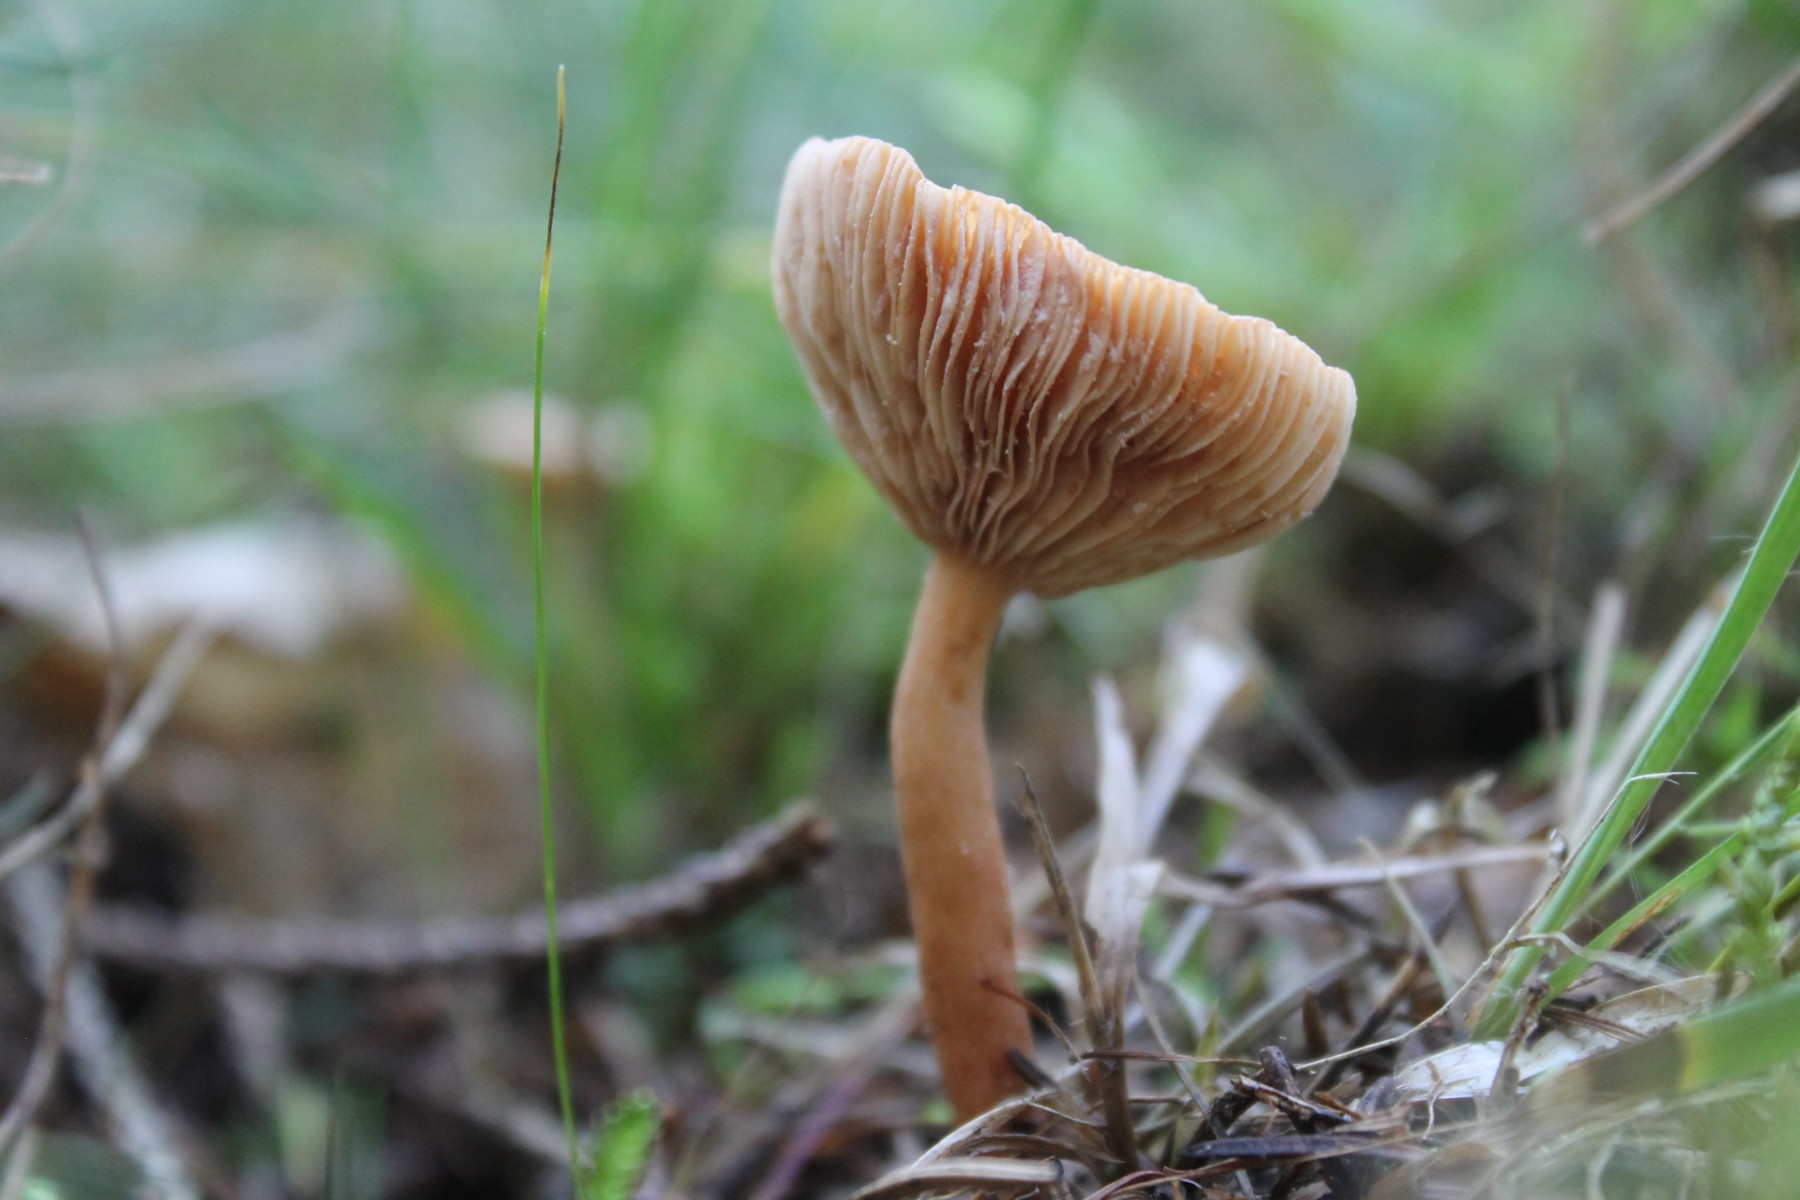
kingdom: Fungi
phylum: Basidiomycota
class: Agaricomycetes
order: Russulales
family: Russulaceae
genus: Lactarius
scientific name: Lactarius tabidus
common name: rynket mælkehat
